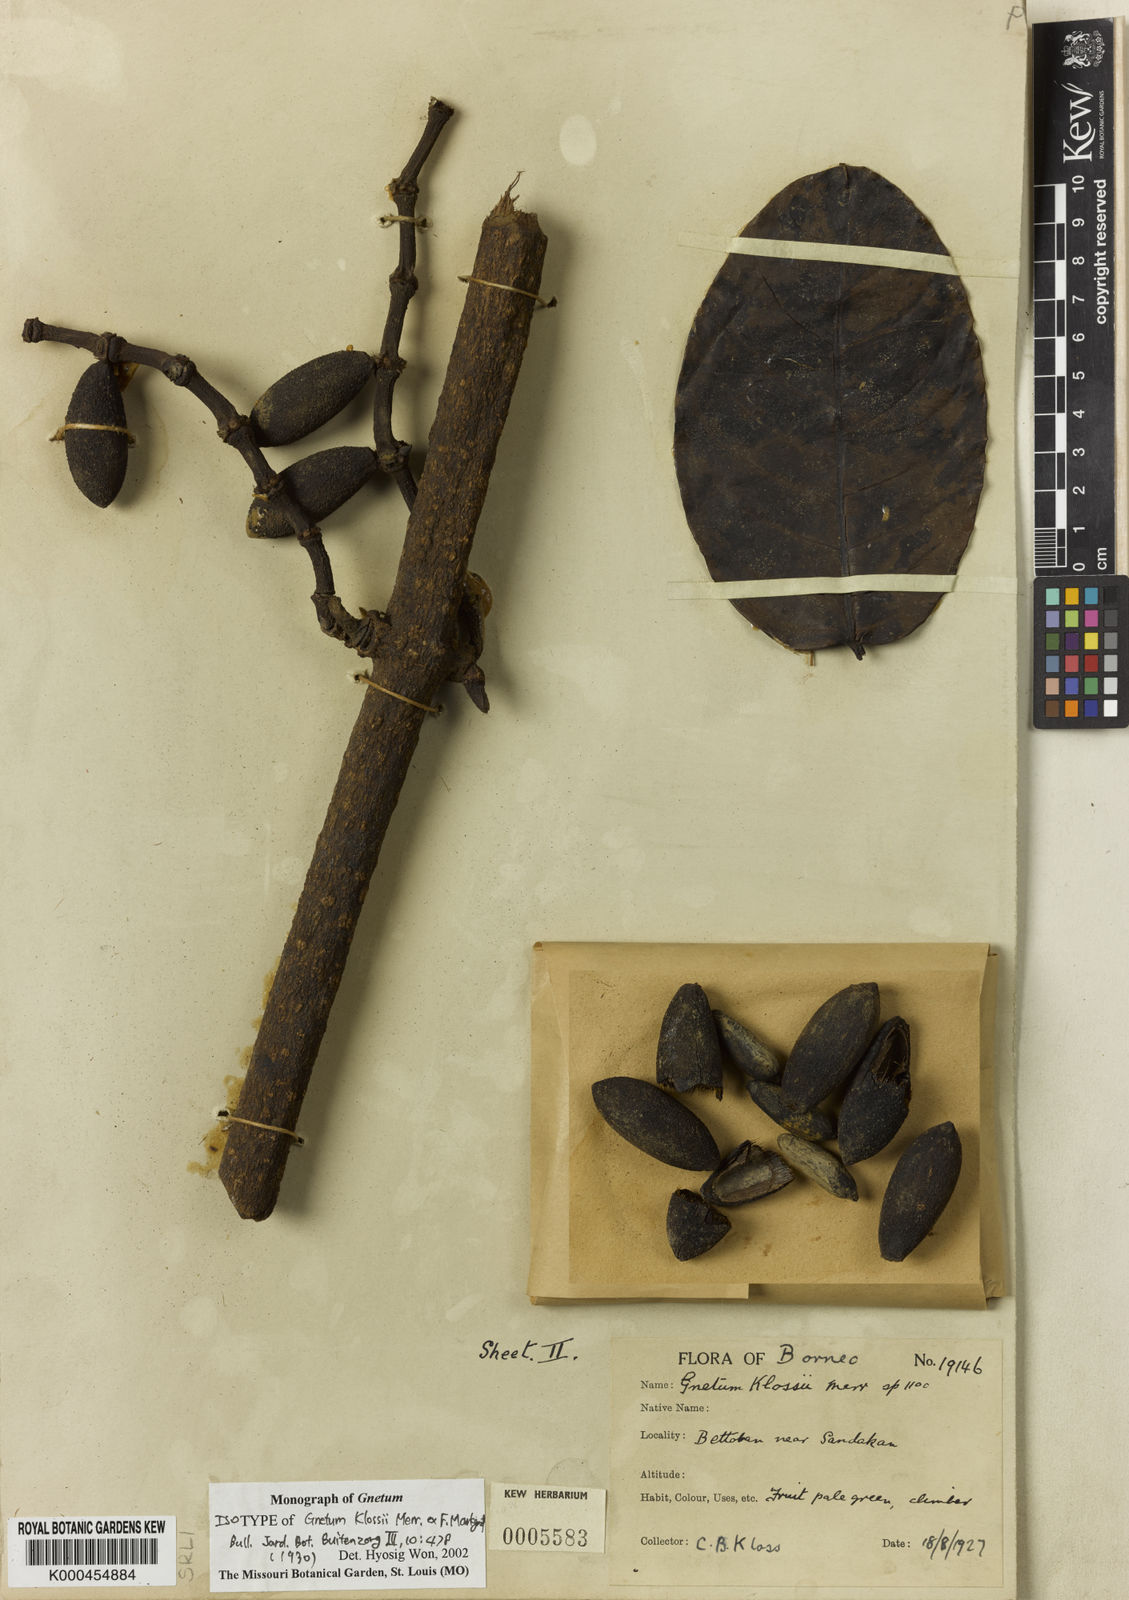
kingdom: Plantae
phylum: Tracheophyta
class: Gnetopsida
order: Gnetales
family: Gnetaceae
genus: Gnetum
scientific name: Gnetum klossii
